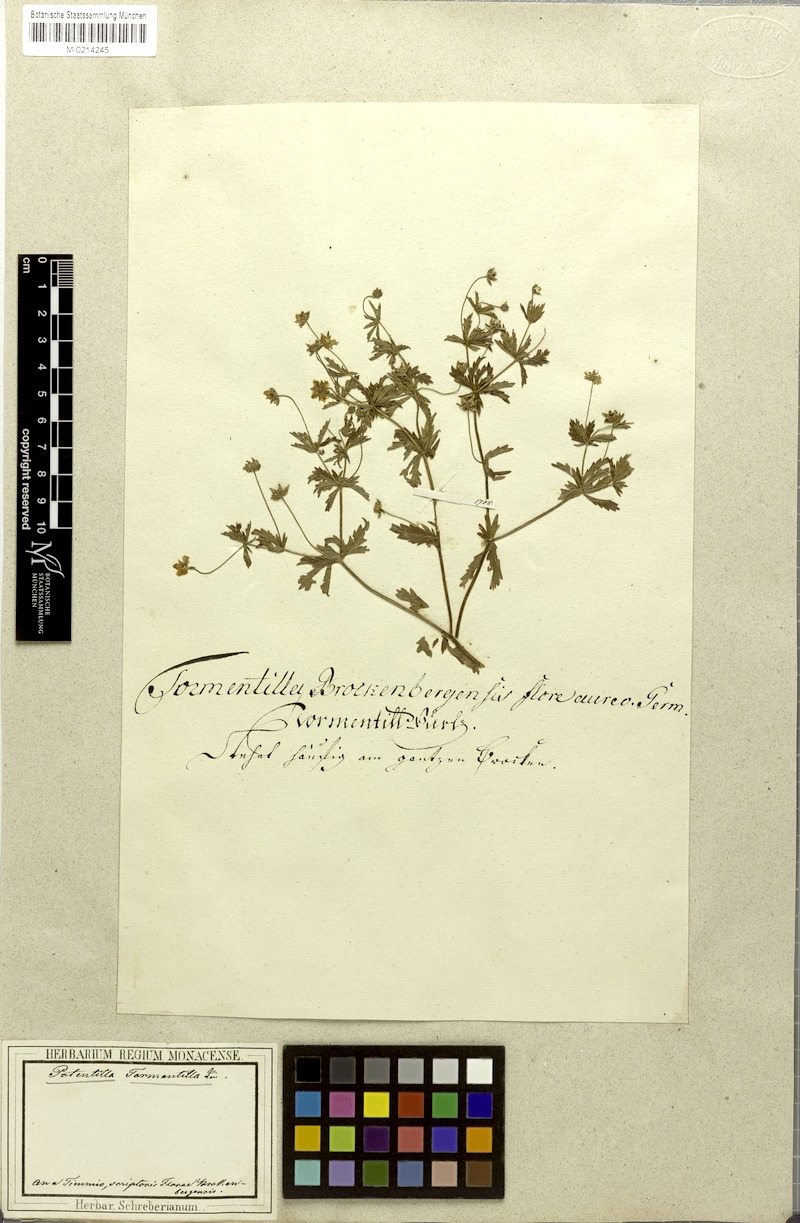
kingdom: Plantae
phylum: Tracheophyta
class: Magnoliopsida
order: Rosales
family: Rosaceae
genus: Potentilla
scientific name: Potentilla erecta
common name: Tormentil
